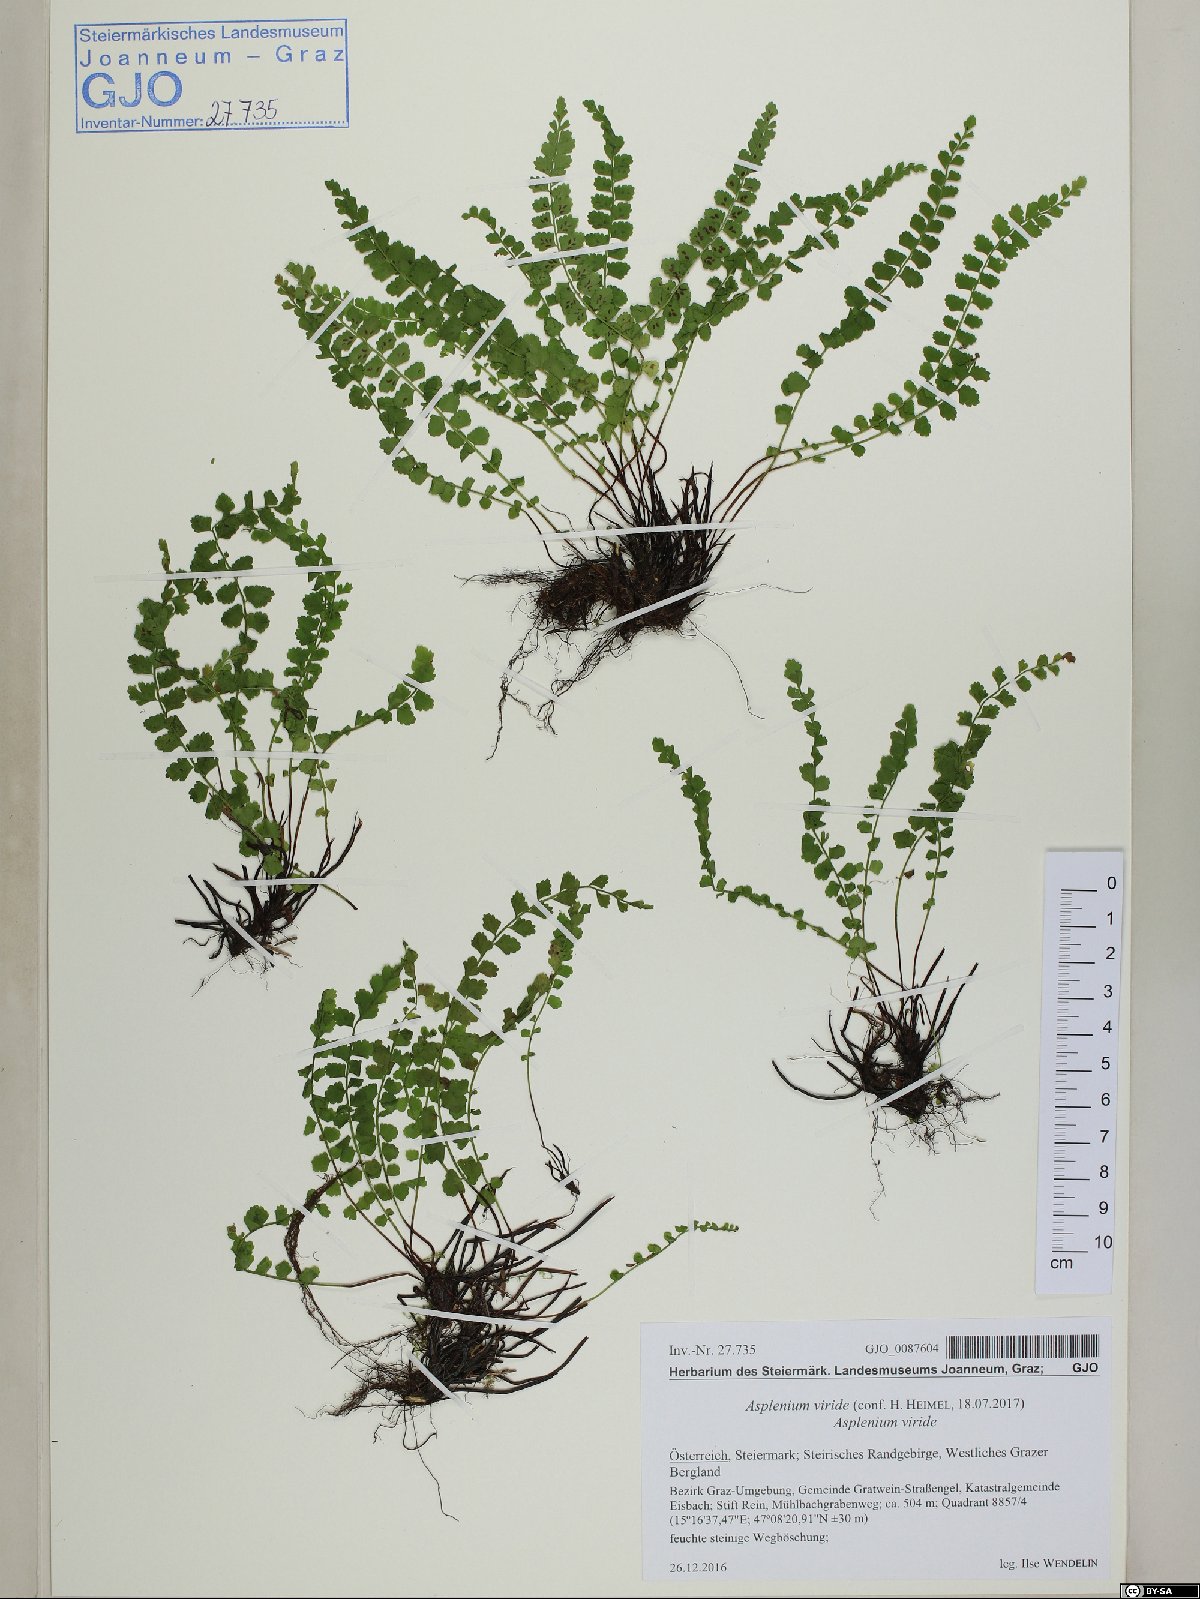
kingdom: Plantae
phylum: Tracheophyta
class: Polypodiopsida
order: Polypodiales
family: Aspleniaceae
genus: Asplenium
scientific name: Asplenium viride
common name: Green spleenwort
